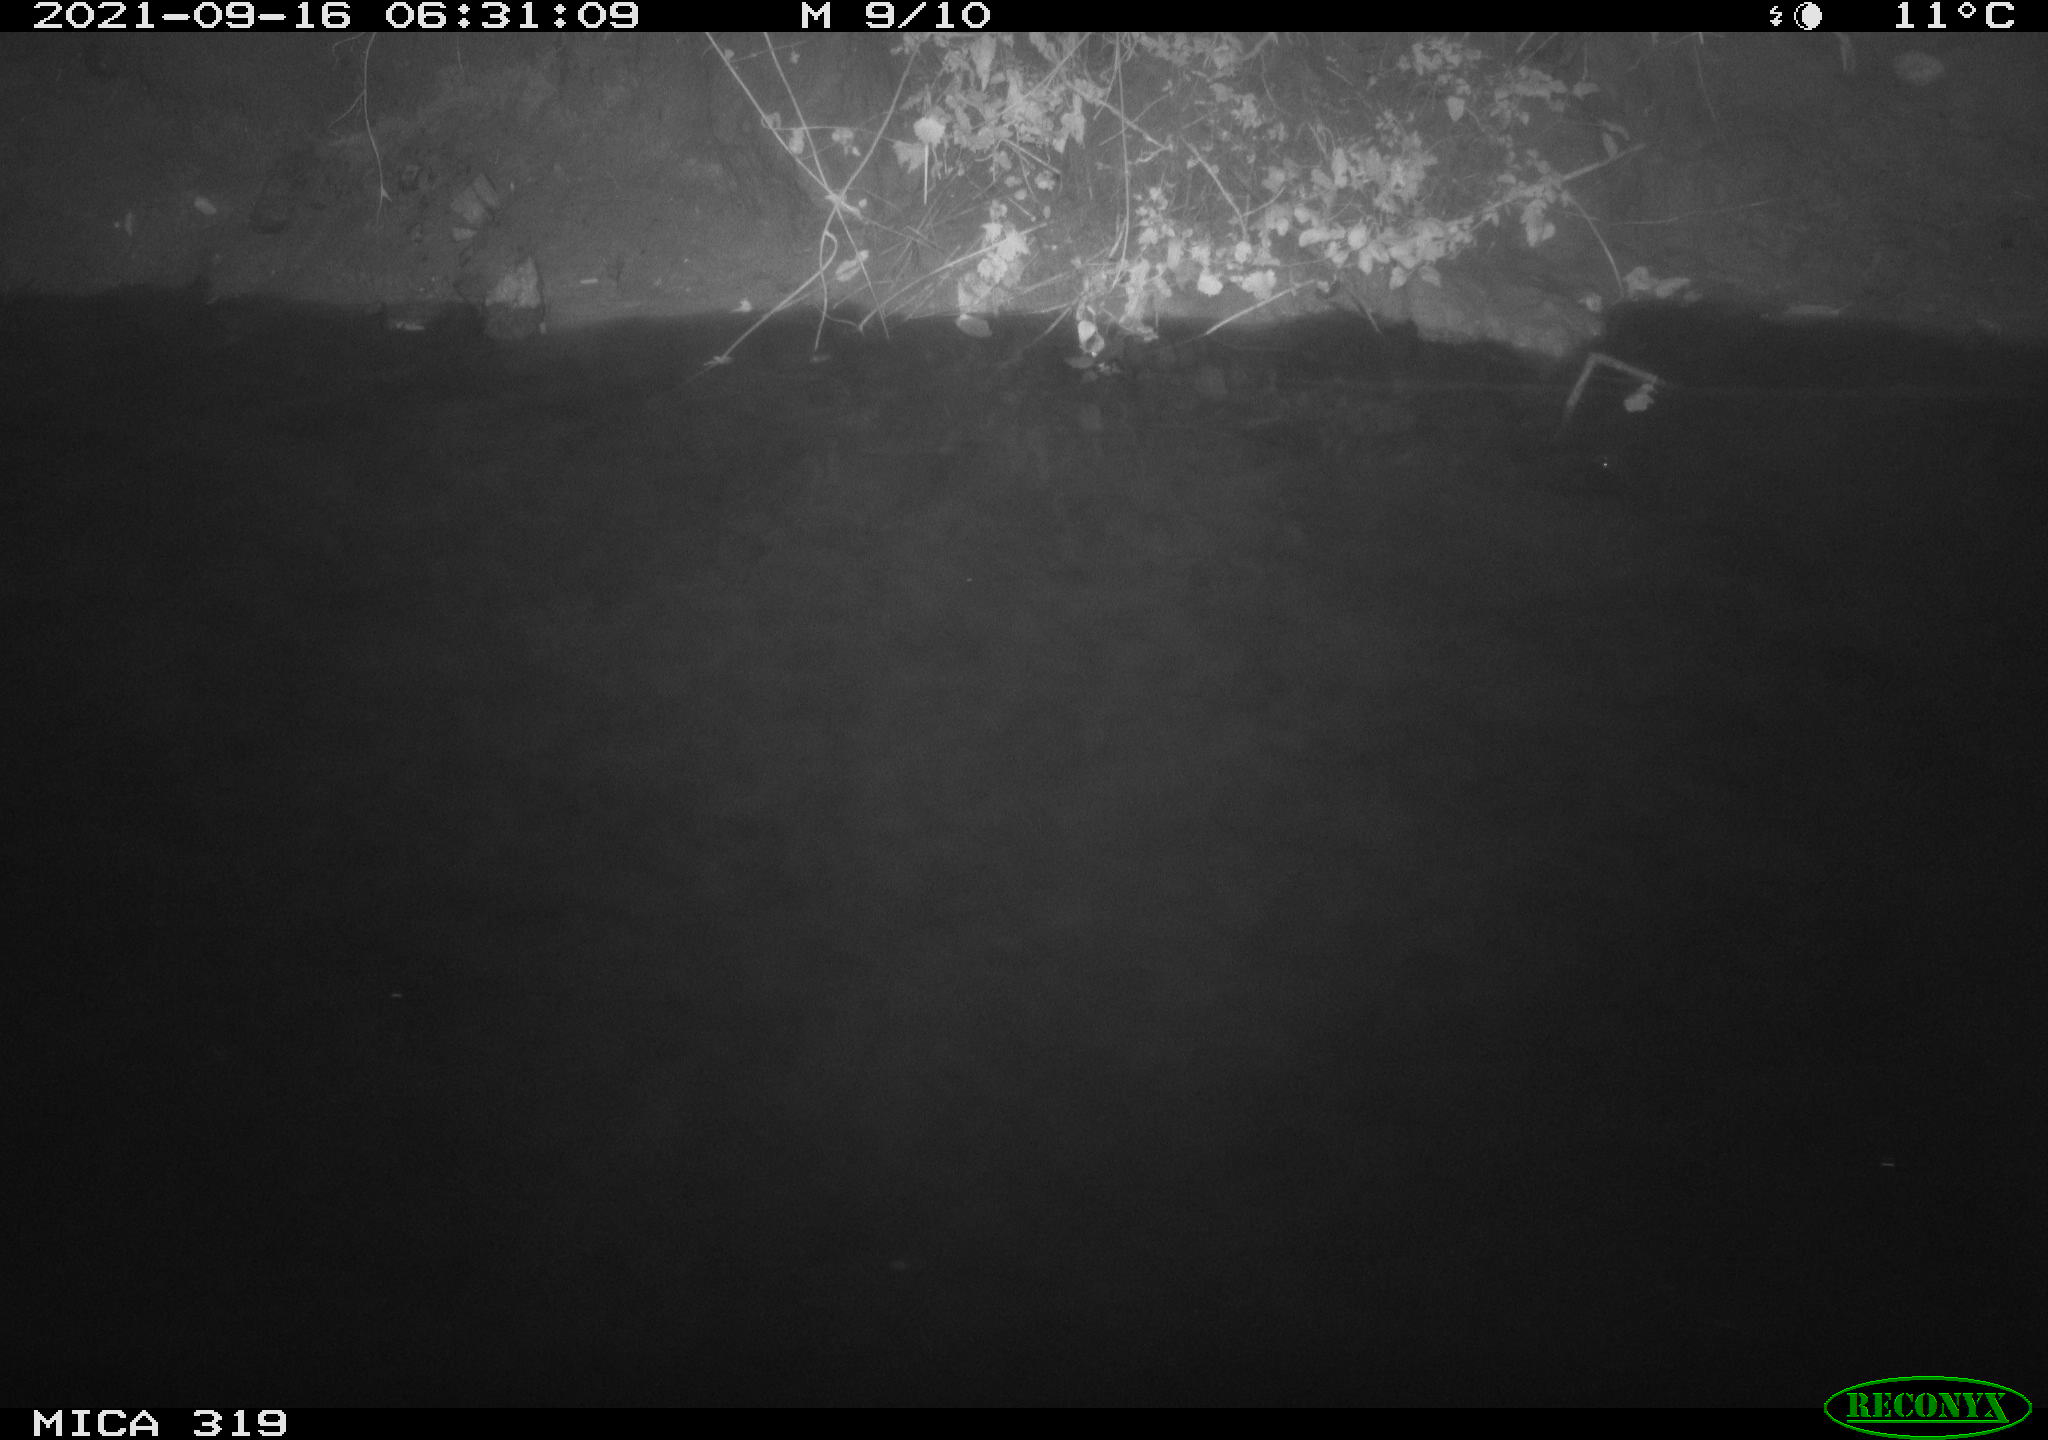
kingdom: Animalia
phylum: Chordata
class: Aves
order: Anseriformes
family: Anatidae
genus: Anas
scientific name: Anas platyrhynchos
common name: Mallard
